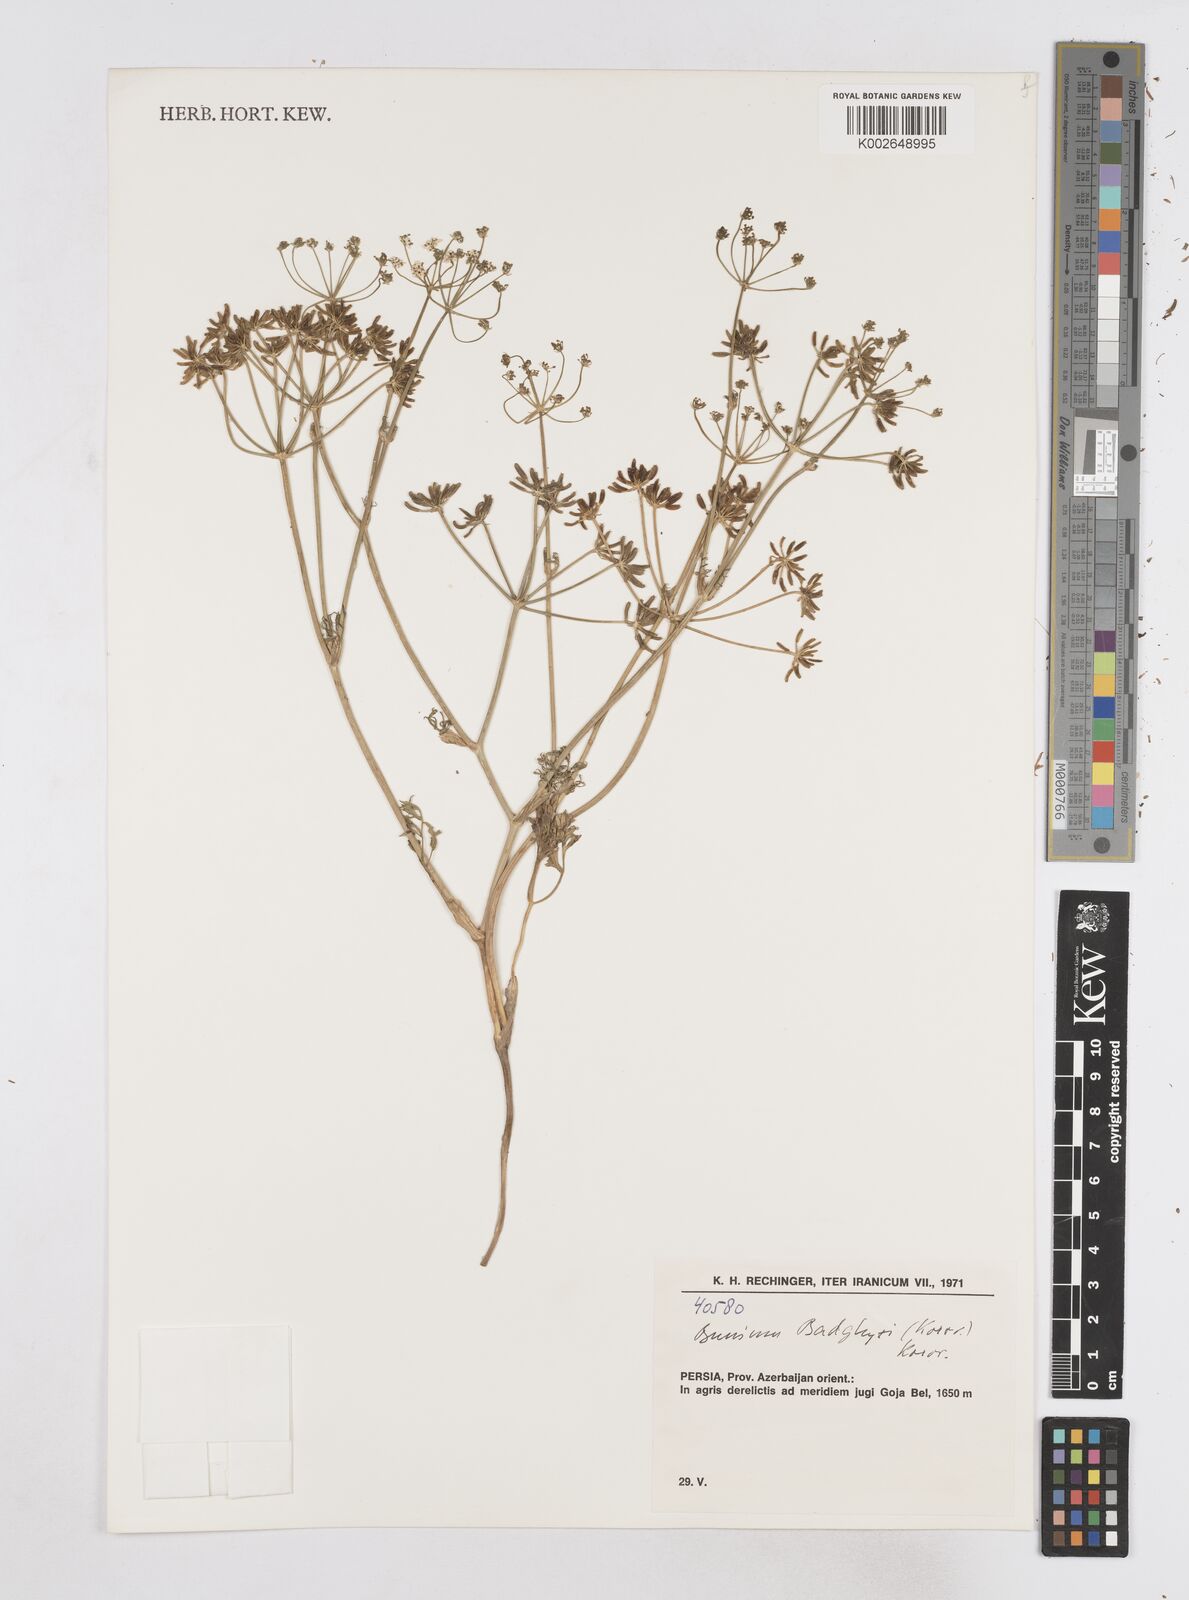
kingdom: Plantae
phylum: Tracheophyta
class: Magnoliopsida
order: Apiales
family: Apiaceae
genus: Elwendia
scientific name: Elwendia afghanica
